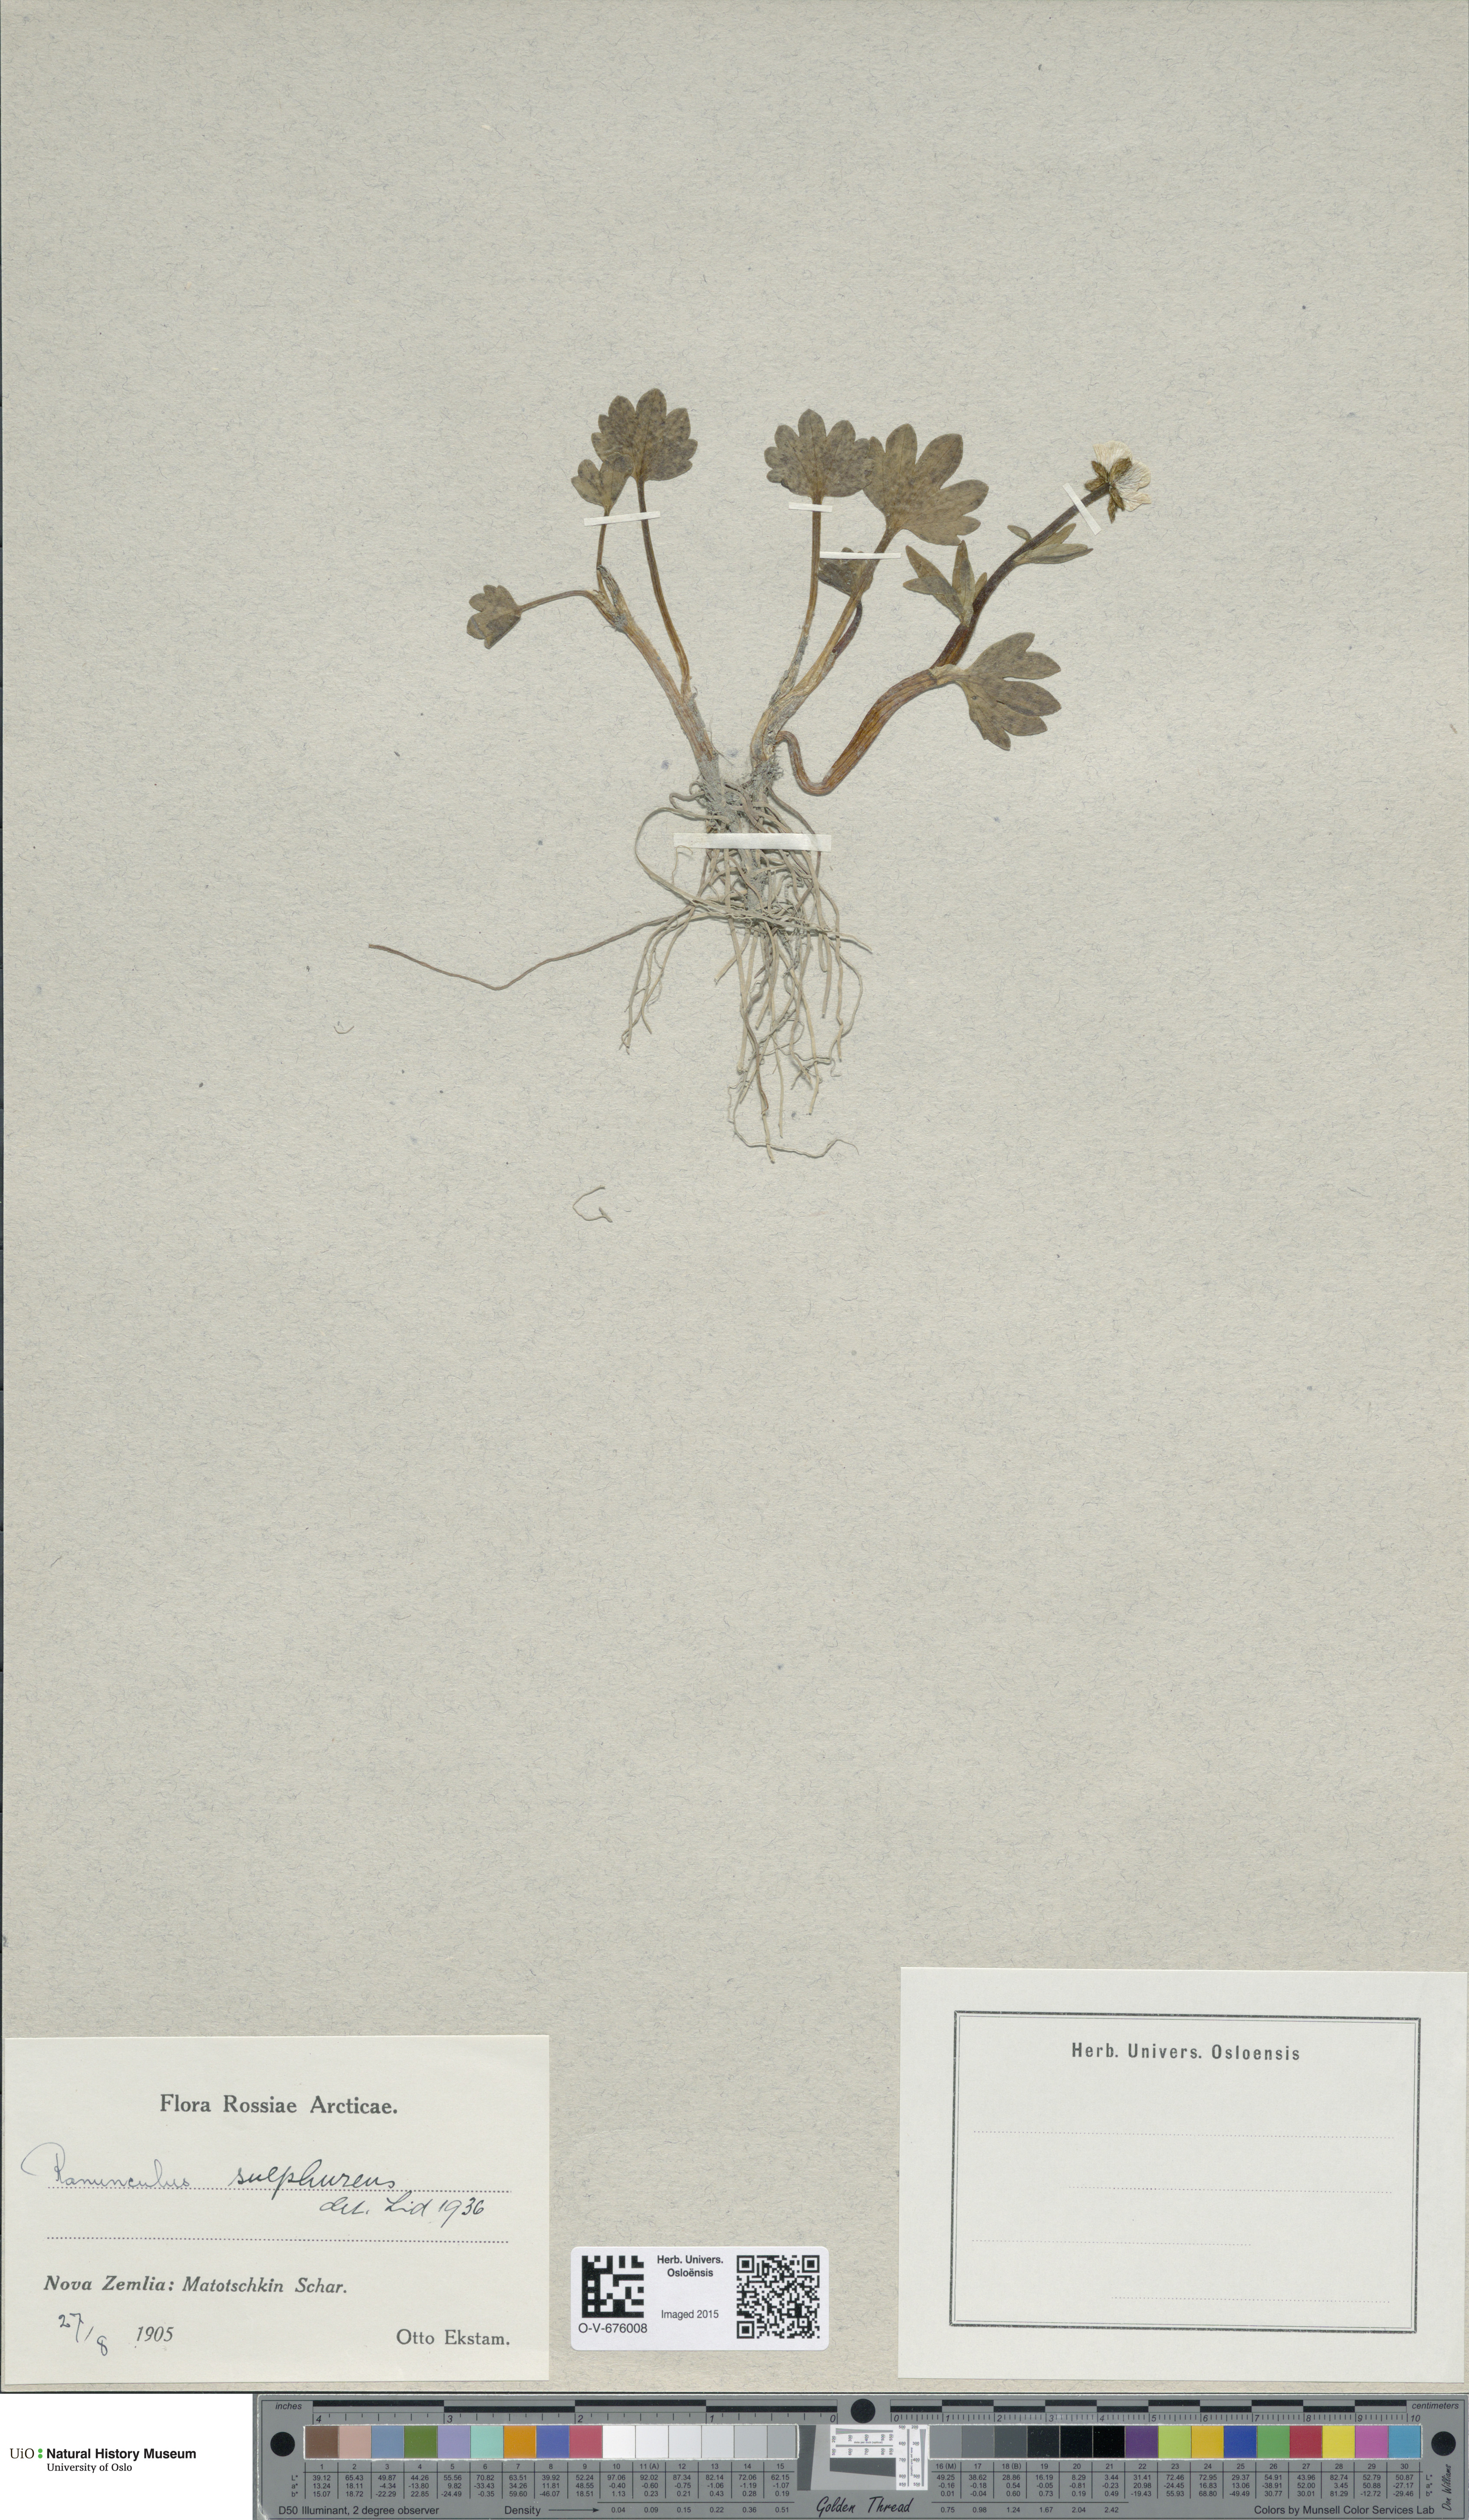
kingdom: Plantae
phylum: Tracheophyta
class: Magnoliopsida
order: Ranunculales
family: Ranunculaceae
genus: Ranunculus
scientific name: Ranunculus sulphureus
